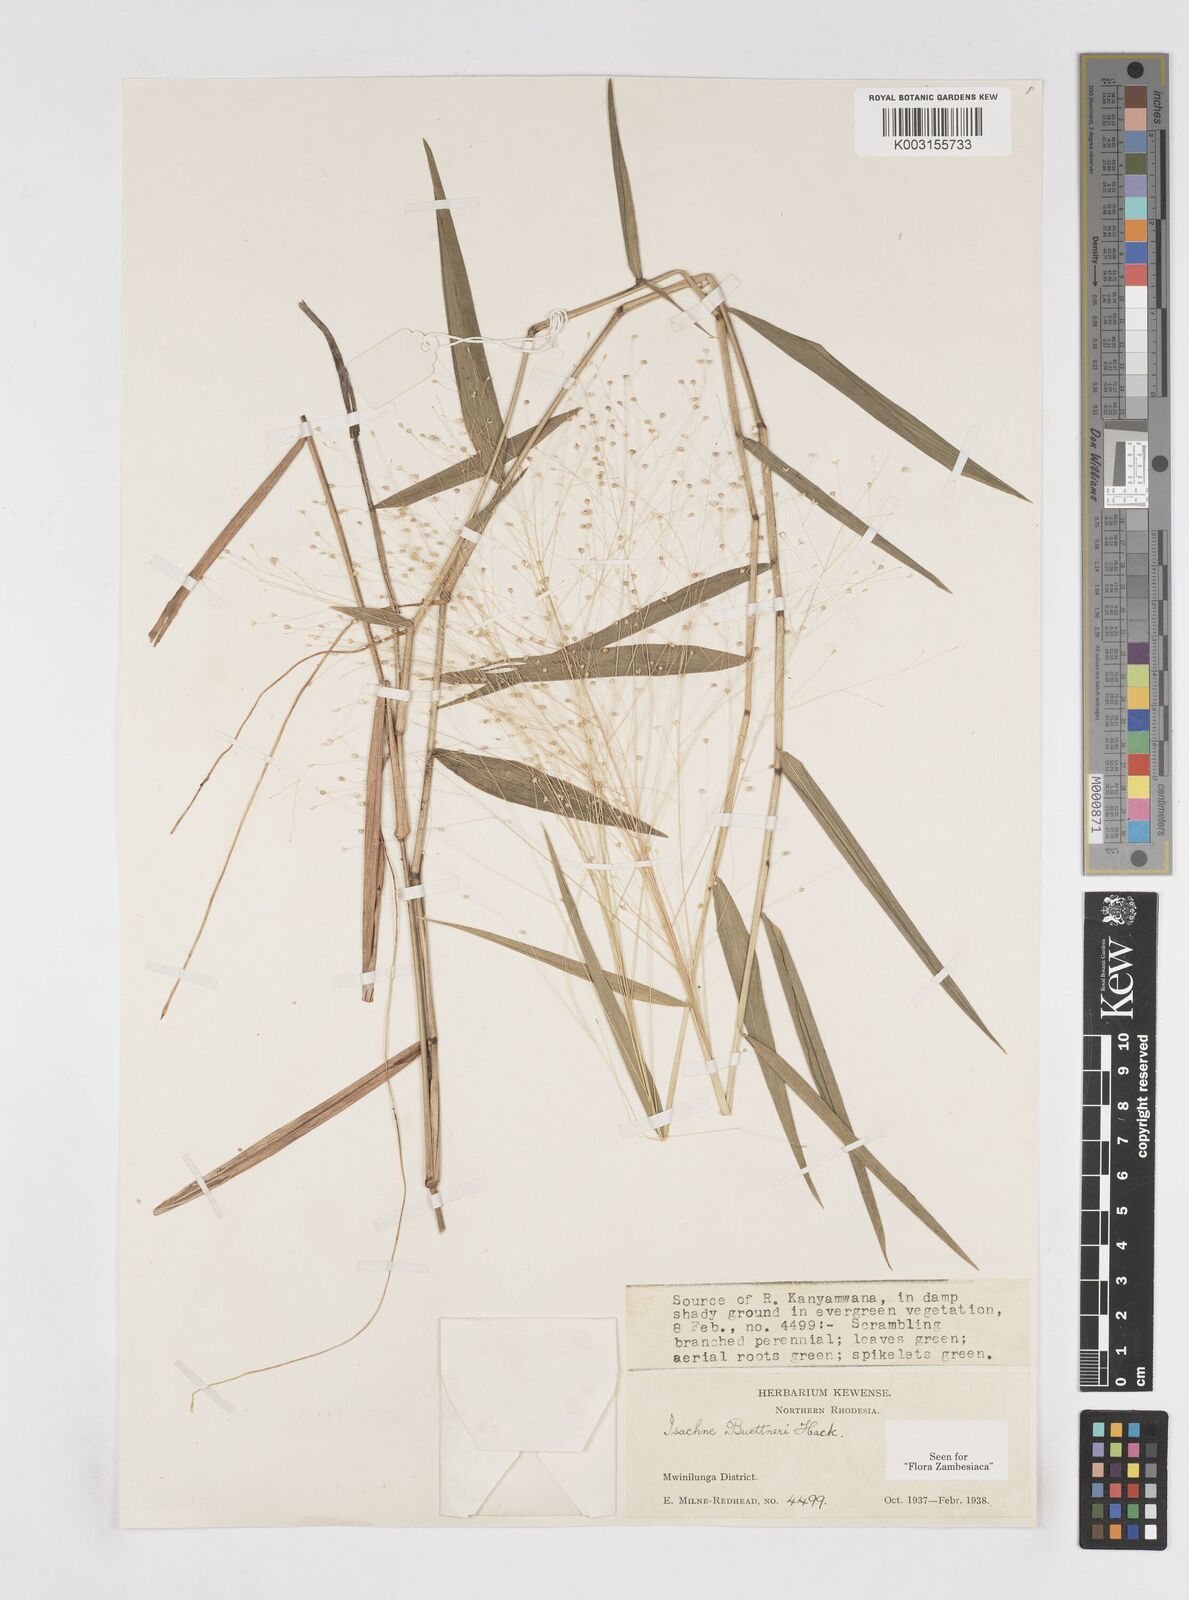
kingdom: Plantae
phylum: Tracheophyta
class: Liliopsida
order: Poales
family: Poaceae
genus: Isachne
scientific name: Isachne albens
